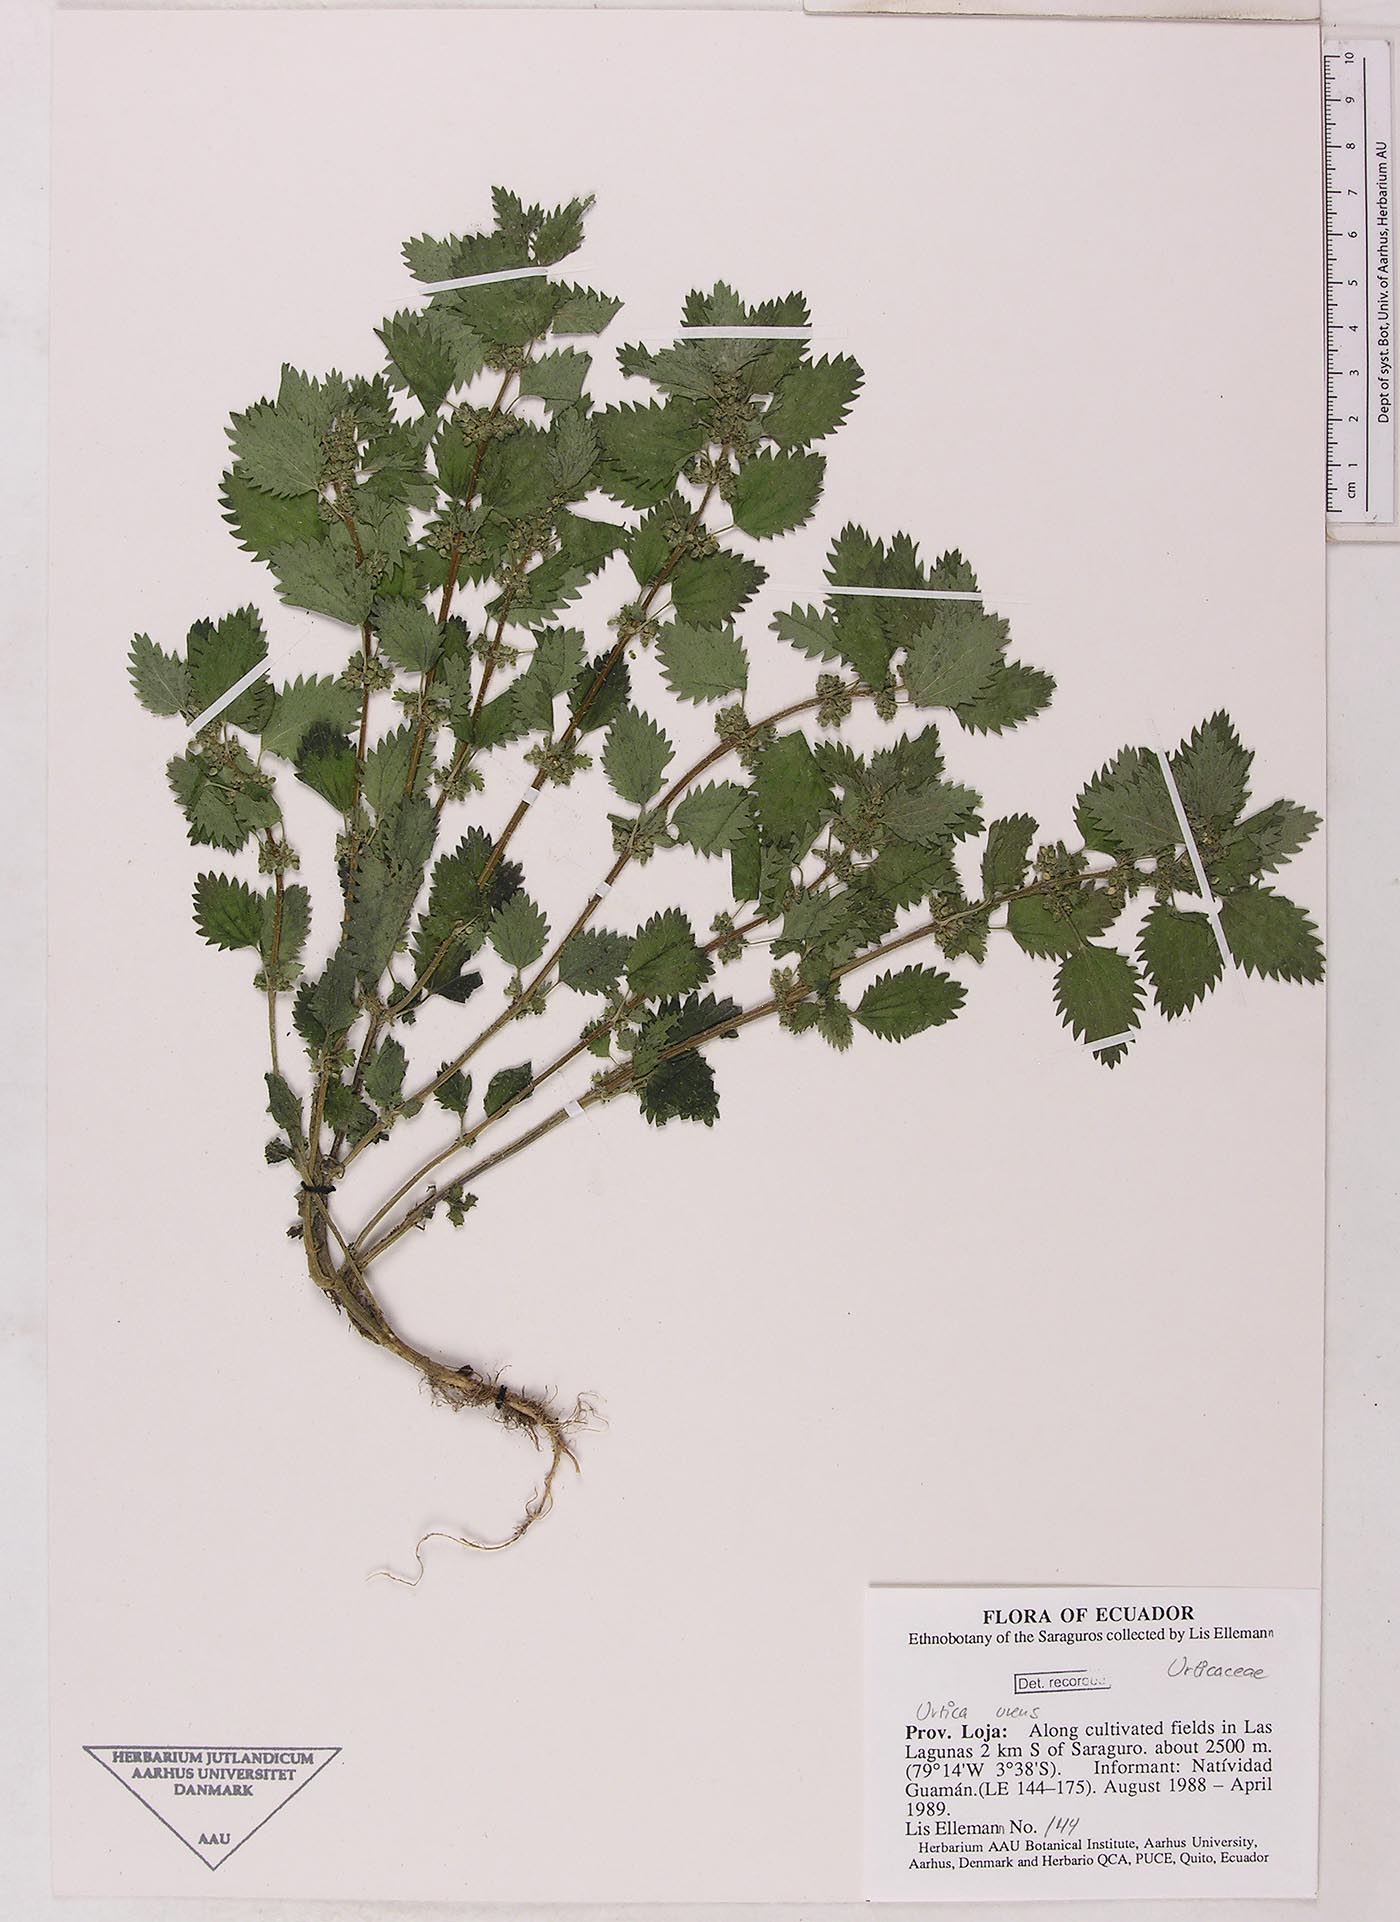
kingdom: Plantae
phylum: Tracheophyta
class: Magnoliopsida
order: Rosales
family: Urticaceae
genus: Urtica
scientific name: Urtica urens
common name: Dwarf nettle
